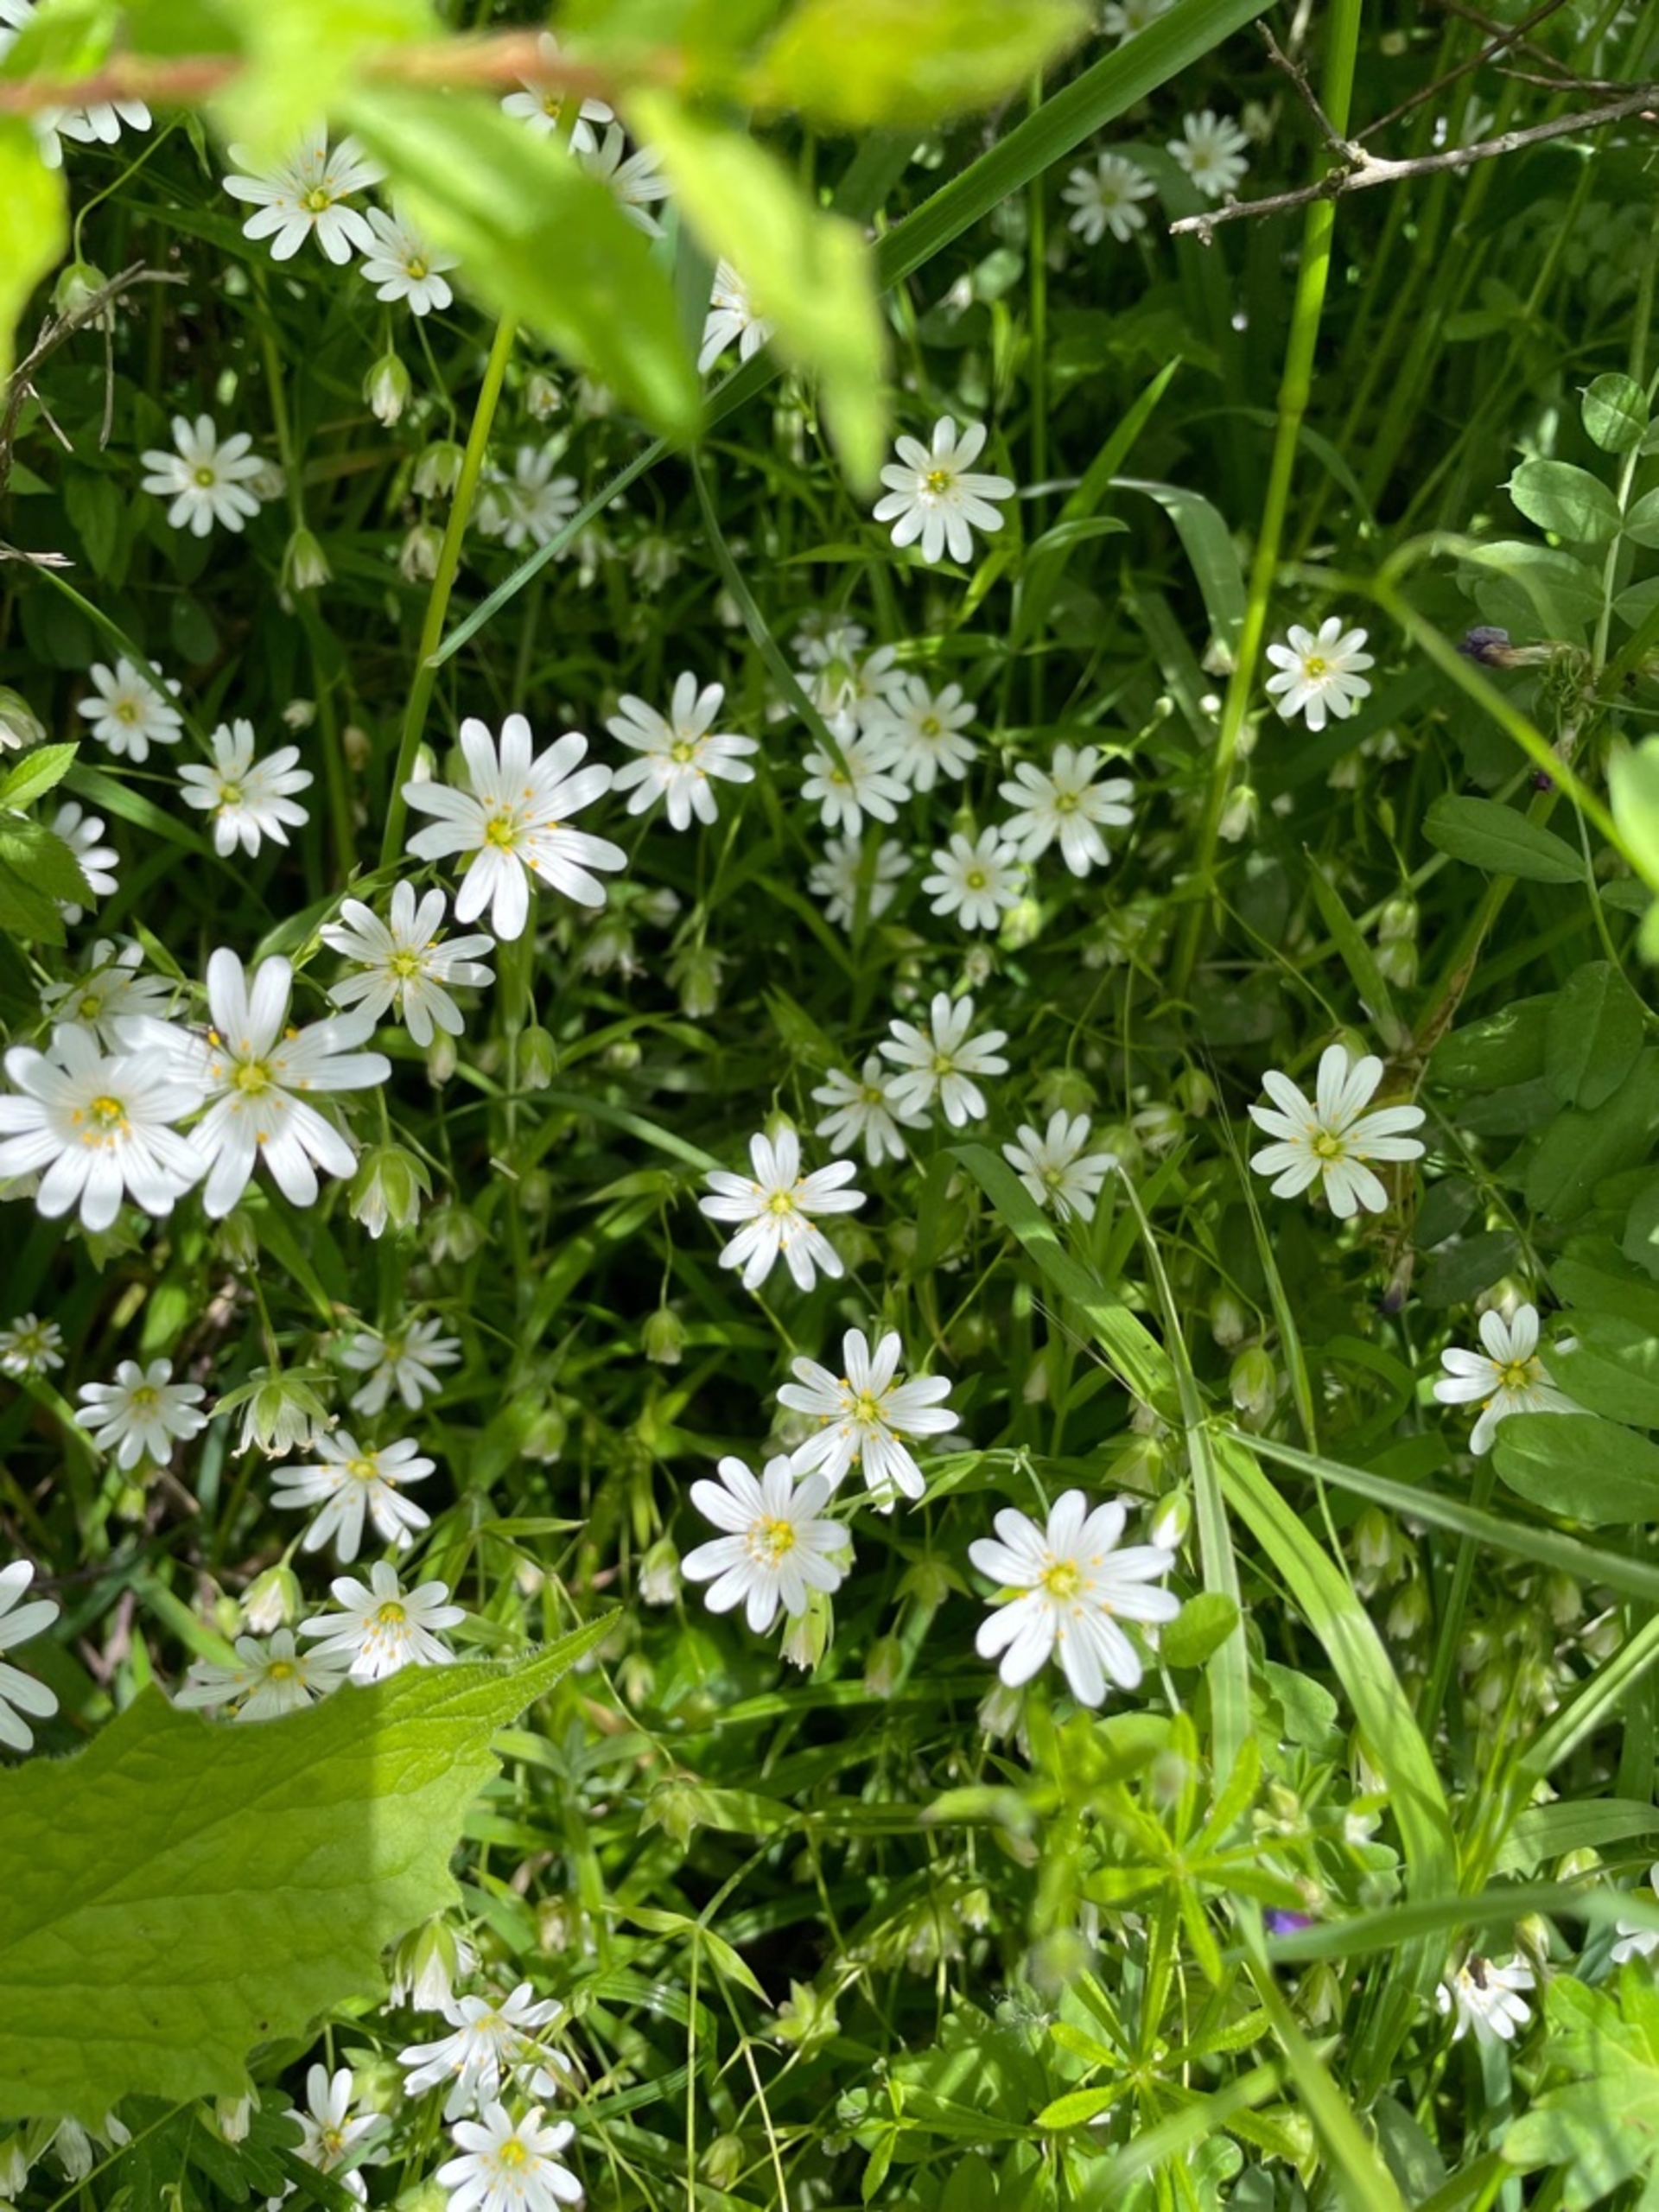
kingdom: Plantae
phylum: Tracheophyta
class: Magnoliopsida
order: Caryophyllales
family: Caryophyllaceae
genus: Rabelera
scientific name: Rabelera holostea
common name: Stor fladstjerne
